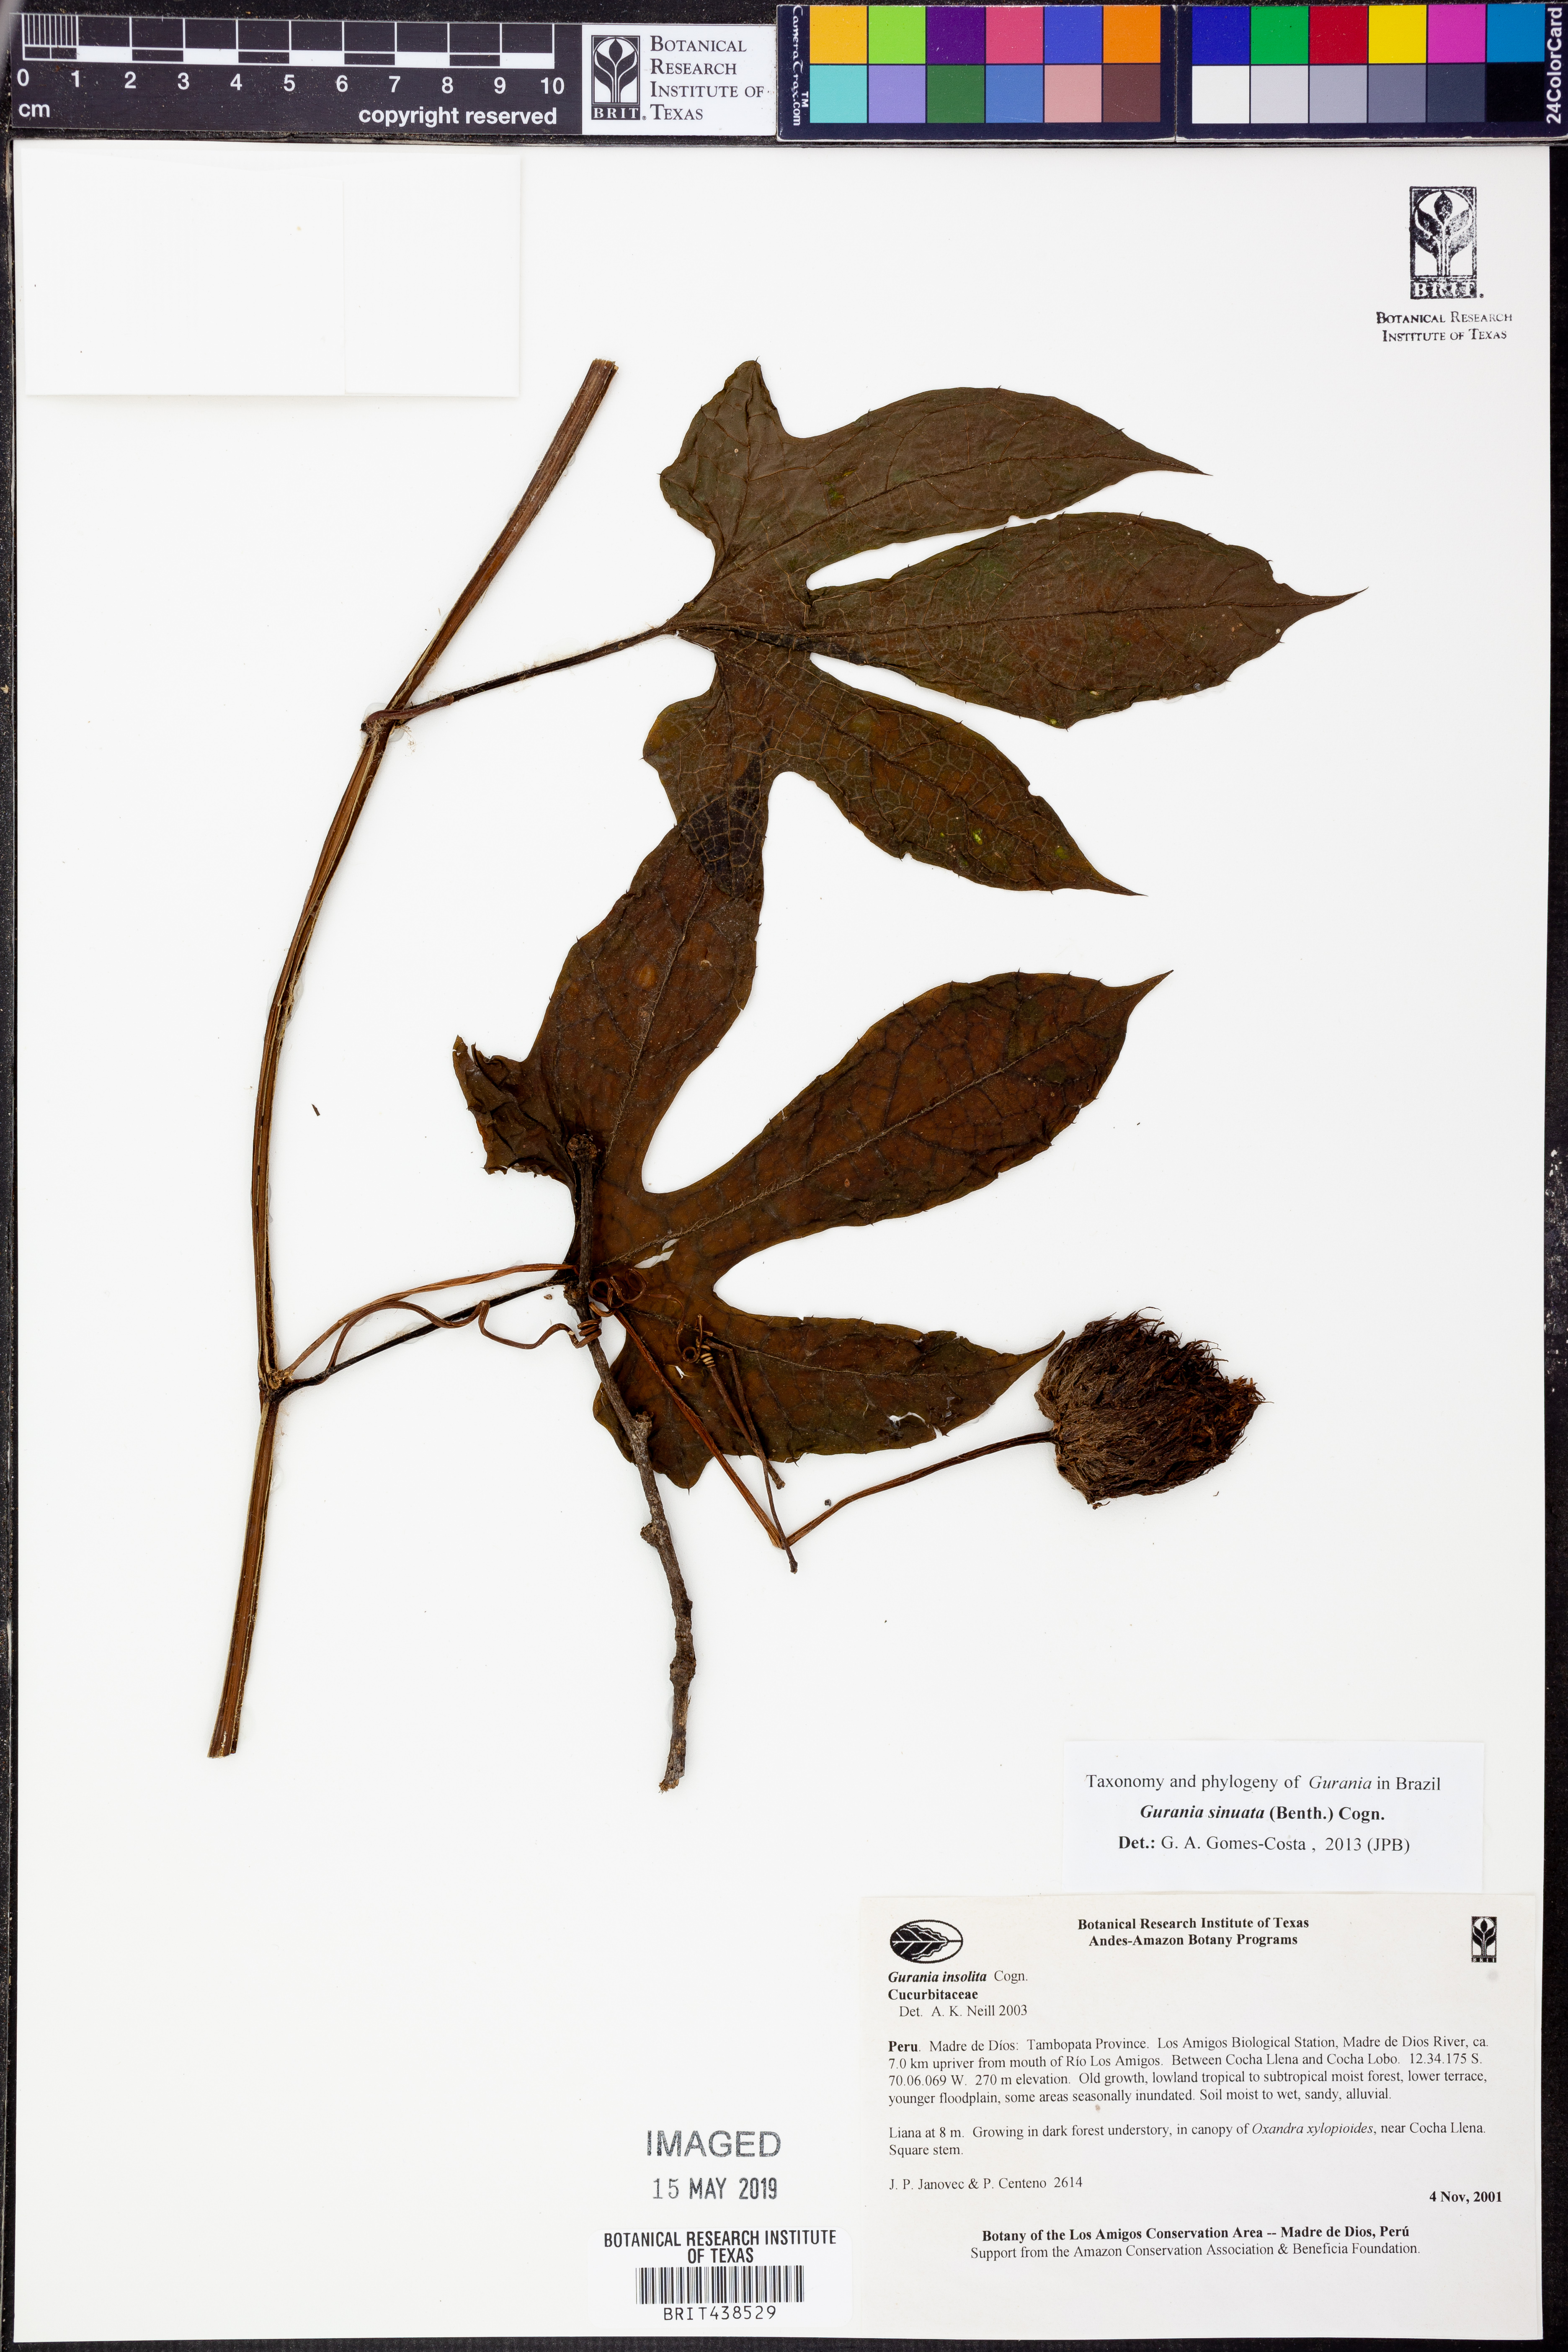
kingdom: Plantae
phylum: Tracheophyta
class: Magnoliopsida
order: Cucurbitales
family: Cucurbitaceae
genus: Gurania
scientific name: Gurania
